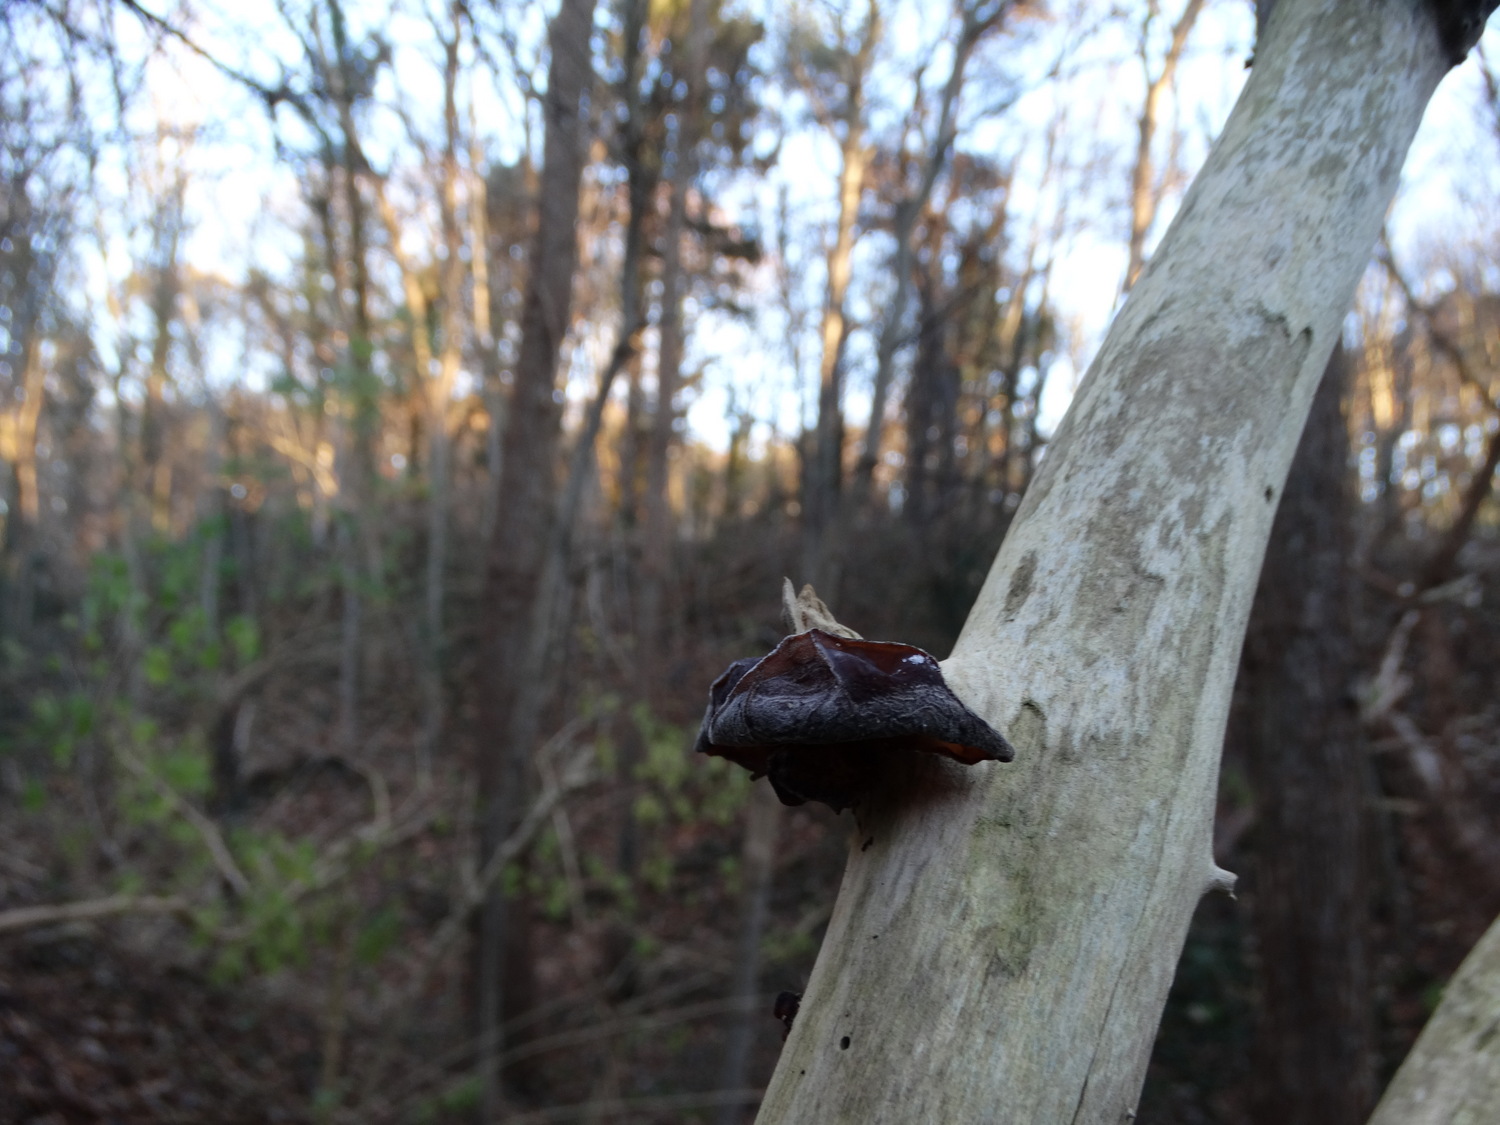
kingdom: Fungi
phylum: Basidiomycota
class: Agaricomycetes
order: Auriculariales
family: Auriculariaceae
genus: Auricularia
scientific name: Auricularia auricula-judae
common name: almindelig judasøre
